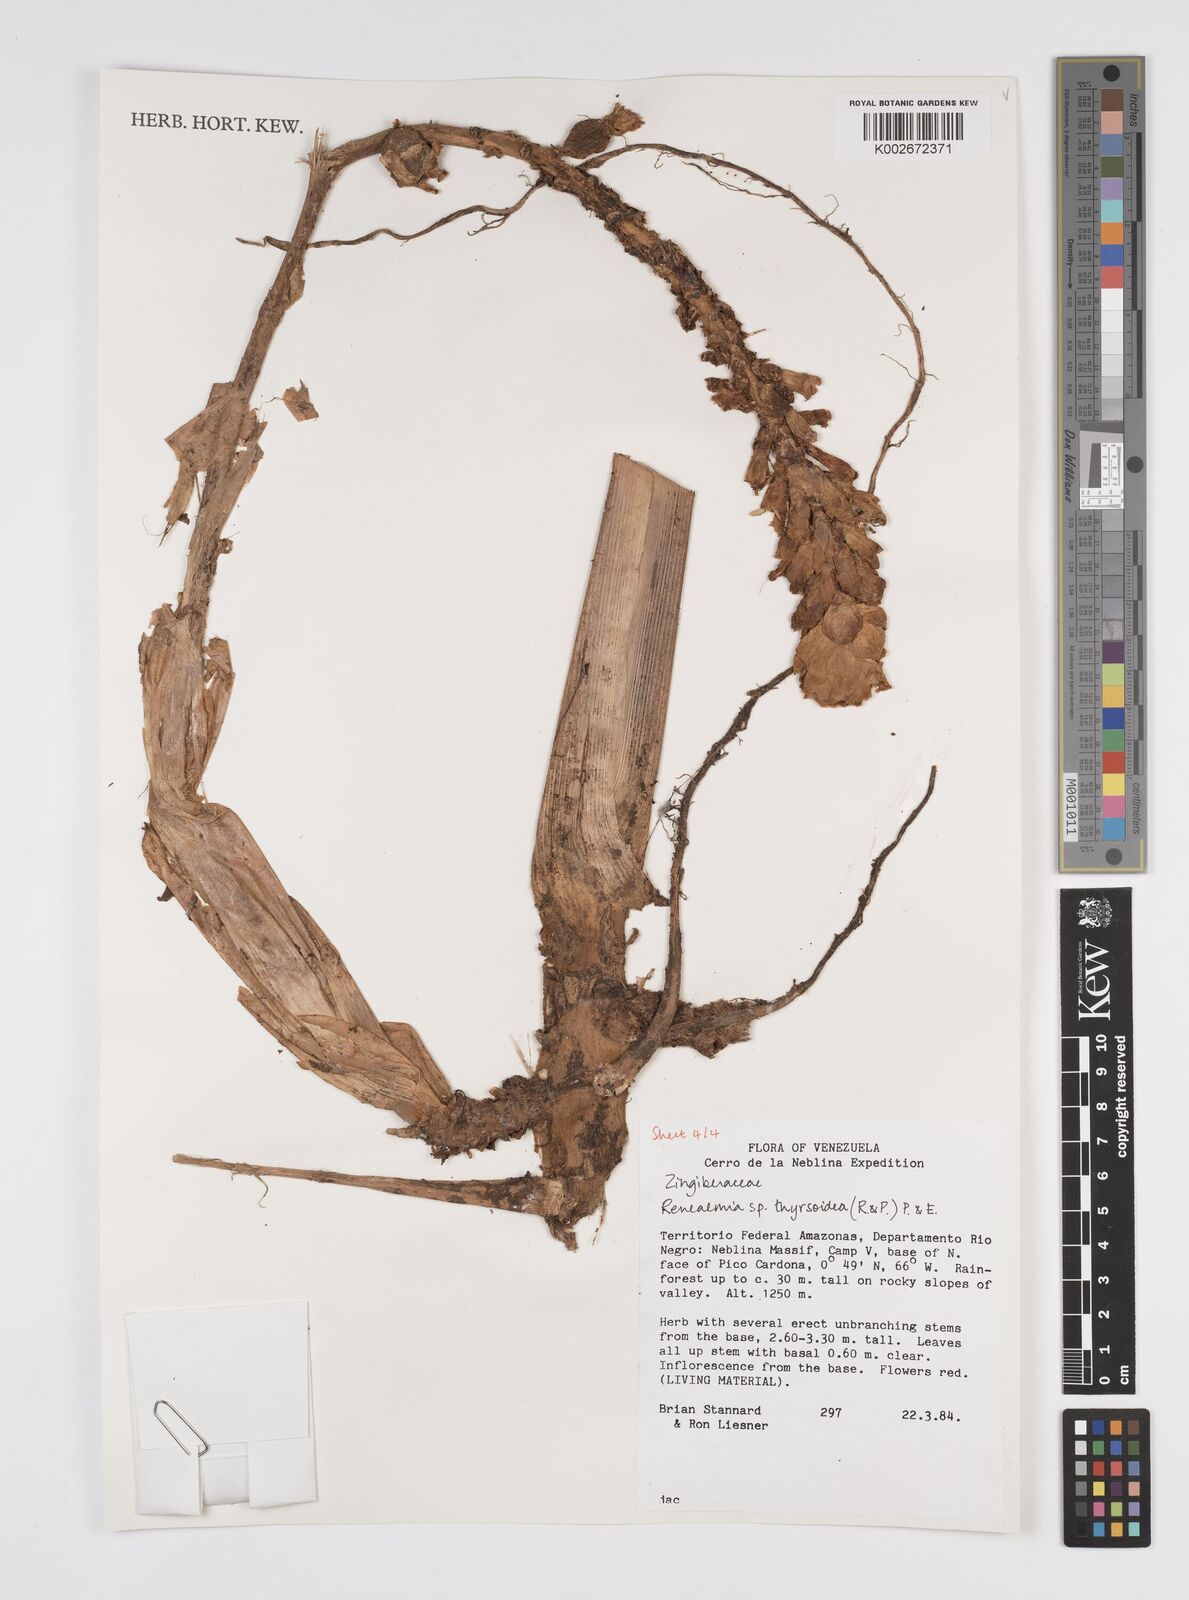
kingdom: Plantae
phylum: Tracheophyta
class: Liliopsida
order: Zingiberales
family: Zingiberaceae
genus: Renealmia
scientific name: Renealmia thyrsoidea
